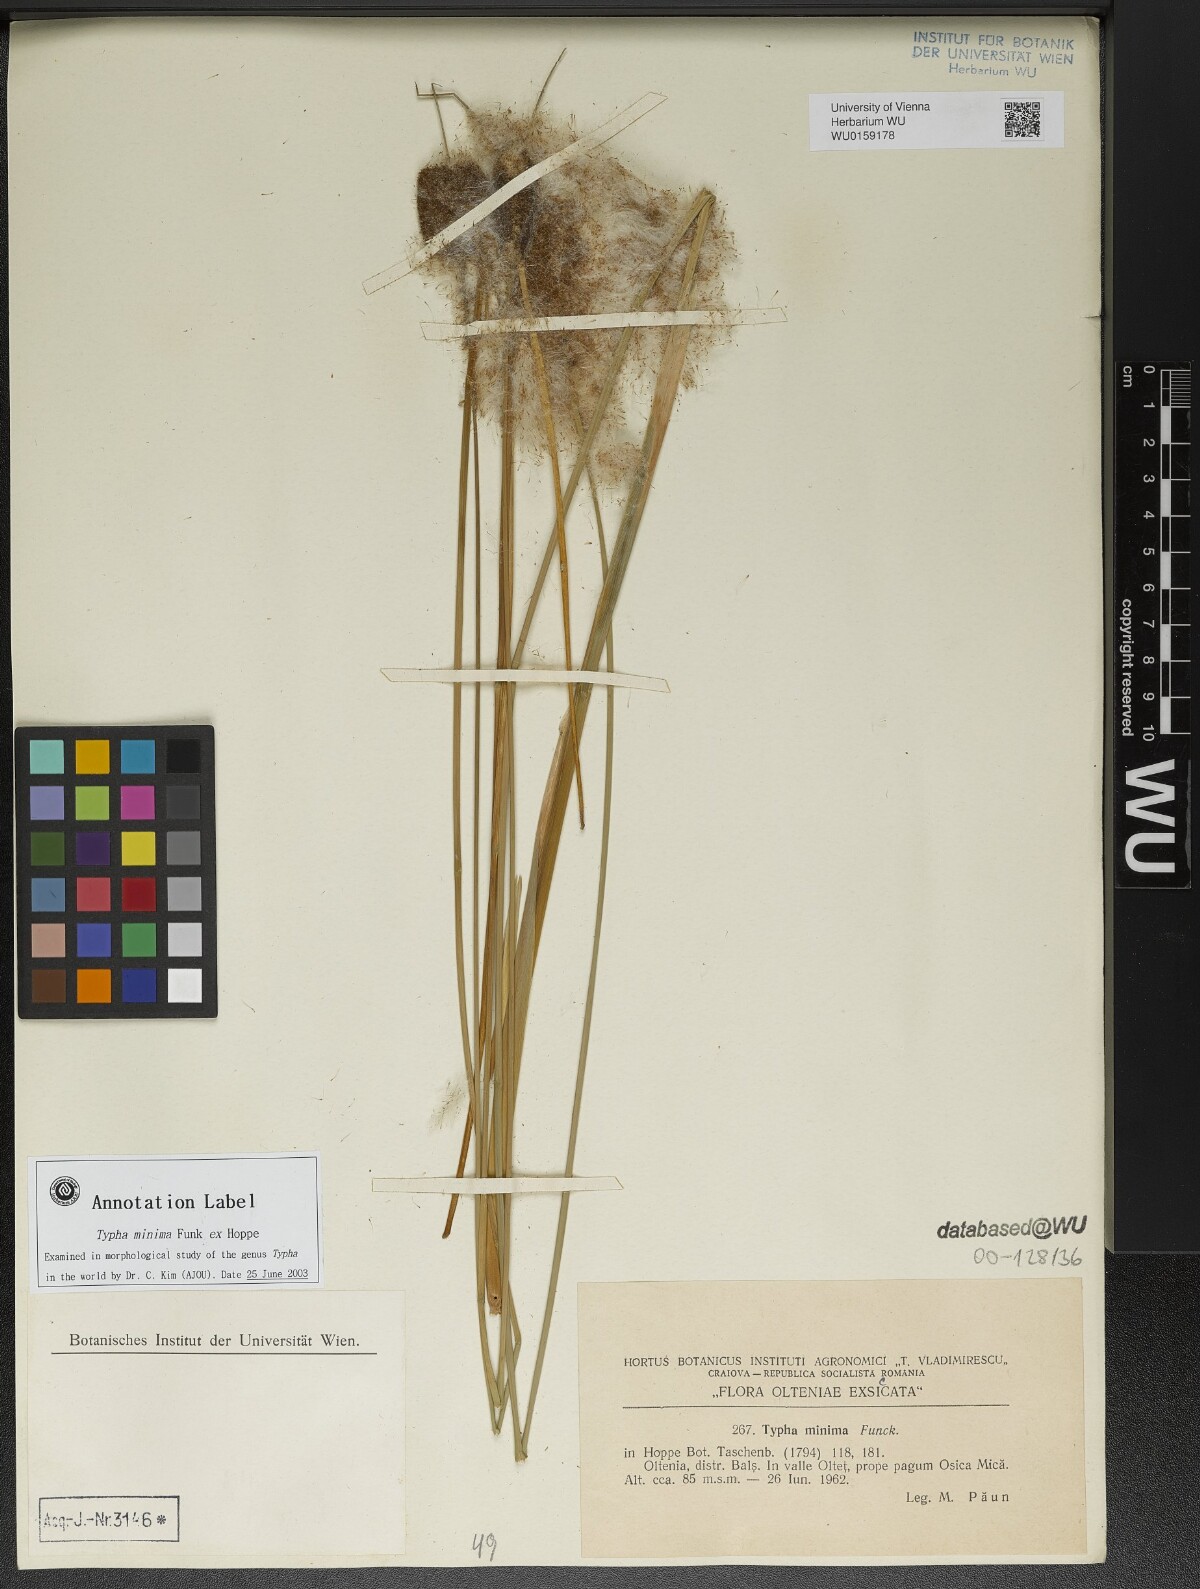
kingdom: Plantae
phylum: Tracheophyta
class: Liliopsida
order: Poales
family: Typhaceae
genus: Typha
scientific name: Typha minima
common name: Dwarf bulrush
